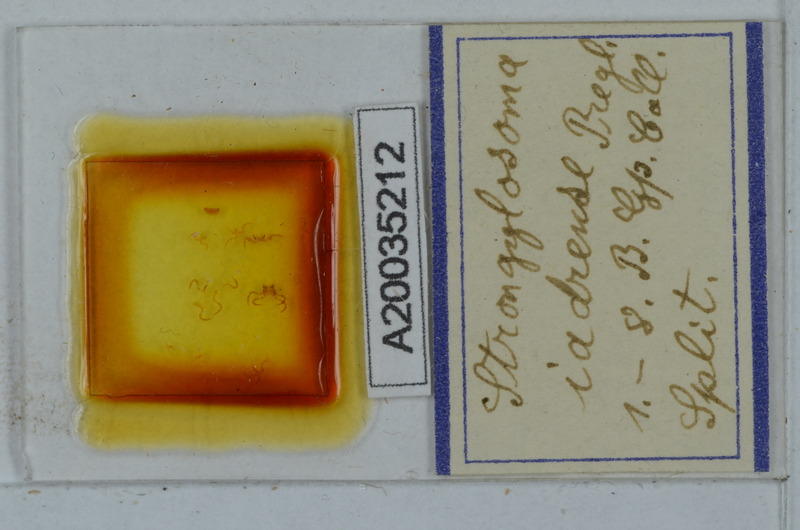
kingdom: Animalia
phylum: Arthropoda
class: Diplopoda
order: Polydesmida
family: Paradoxosomatidae
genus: Stosatea
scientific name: Stosatea iadrensis
